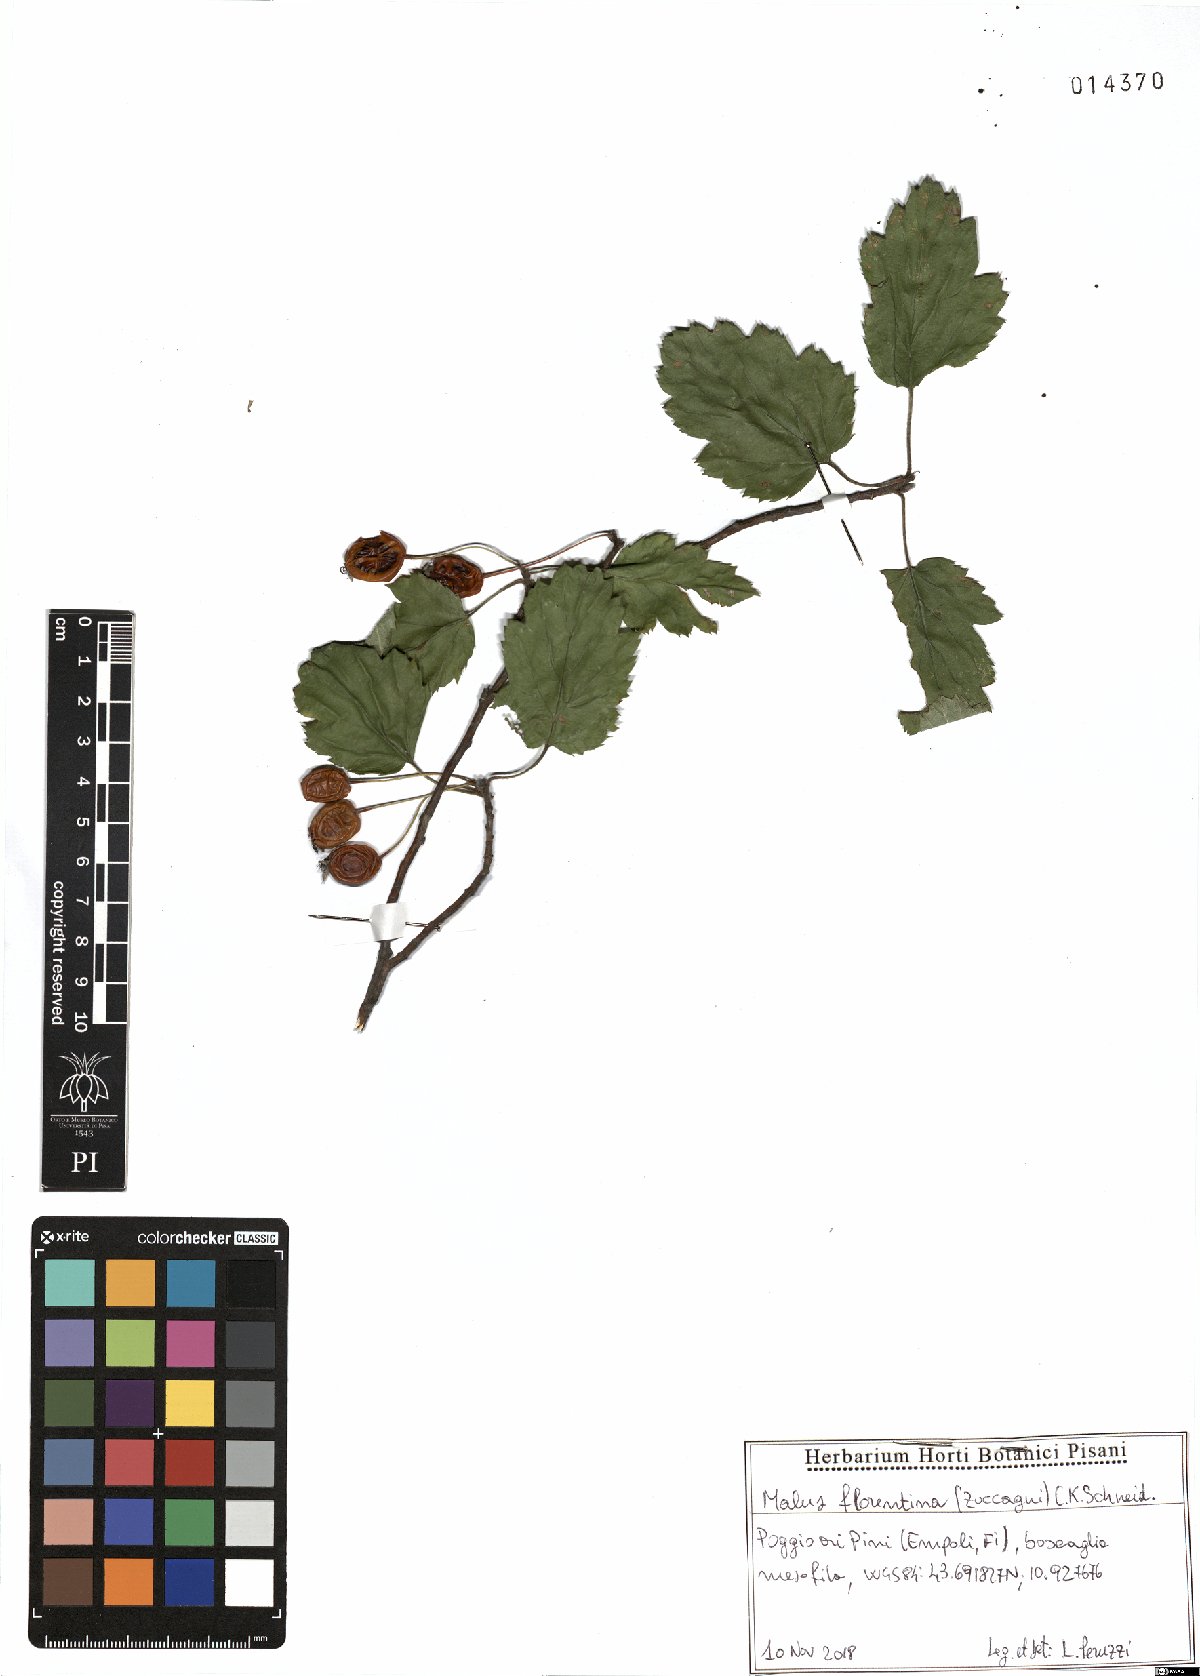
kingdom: Plantae
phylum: Tracheophyta
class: Magnoliopsida
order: Rosales
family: Rosaceae
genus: Tormimalus
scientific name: Tormimalus florentina
